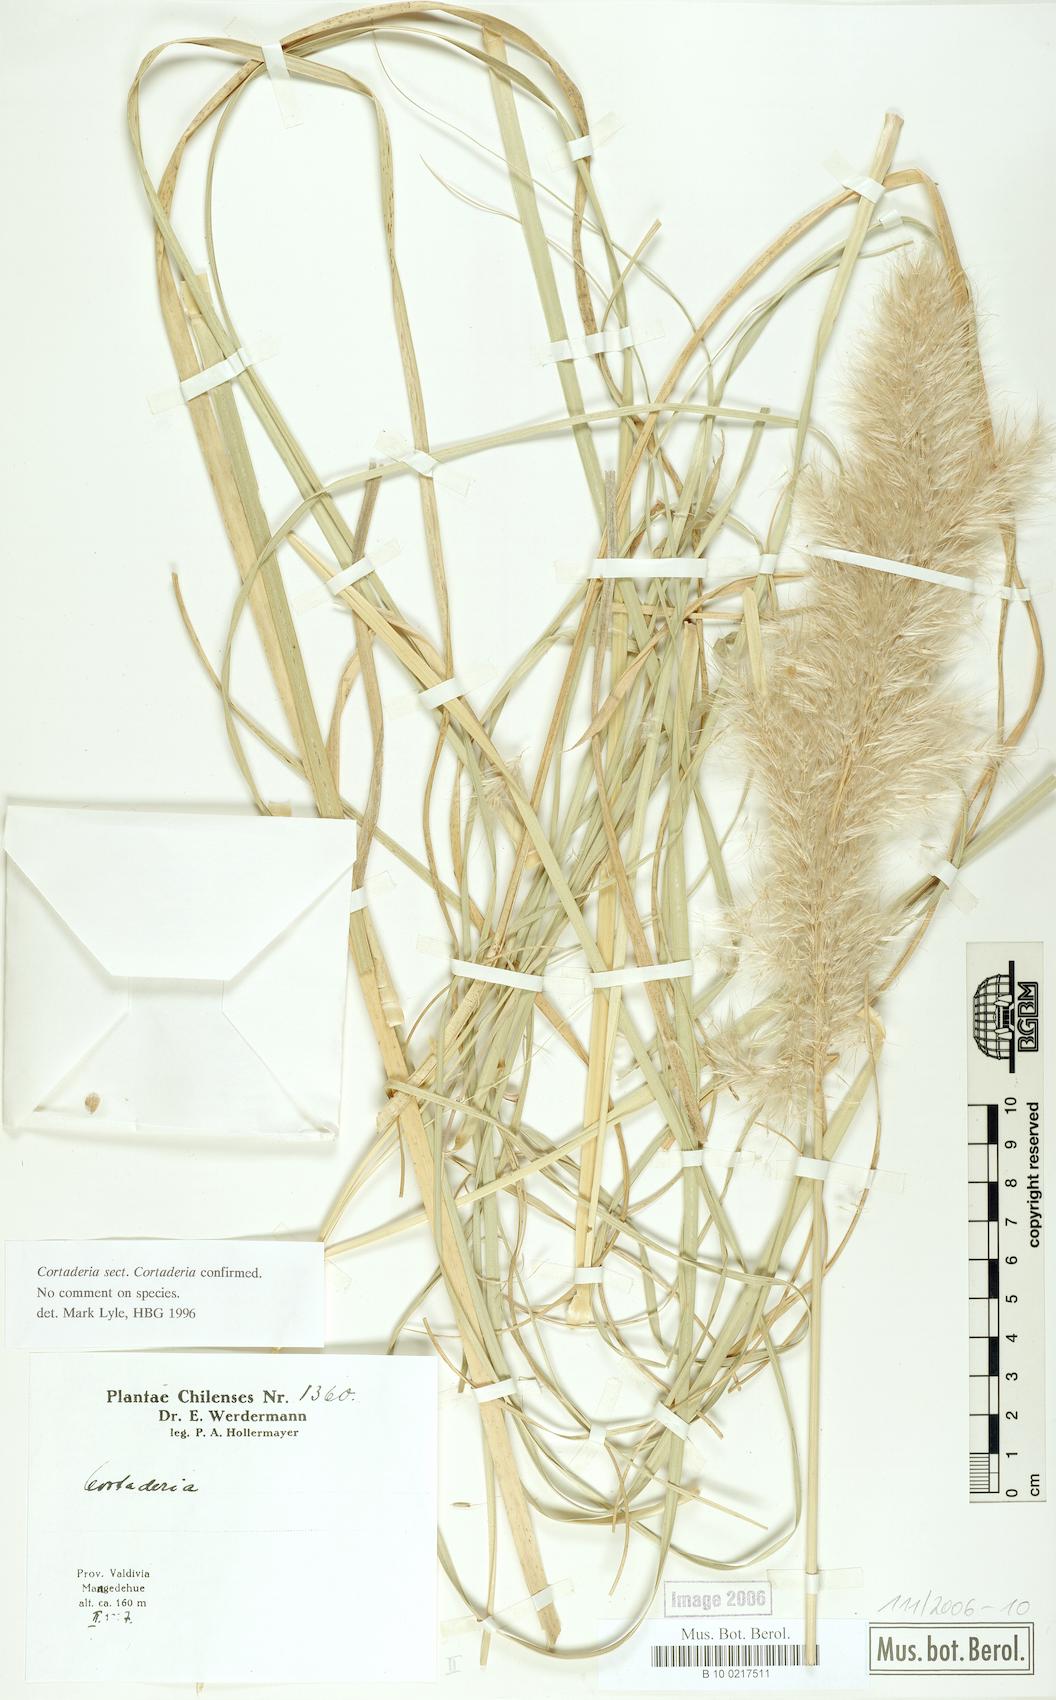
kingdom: Plantae
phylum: Tracheophyta
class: Liliopsida
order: Poales
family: Poaceae
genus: Cortaderia
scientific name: Cortaderia selloana
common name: Uruguayan pampas grass
